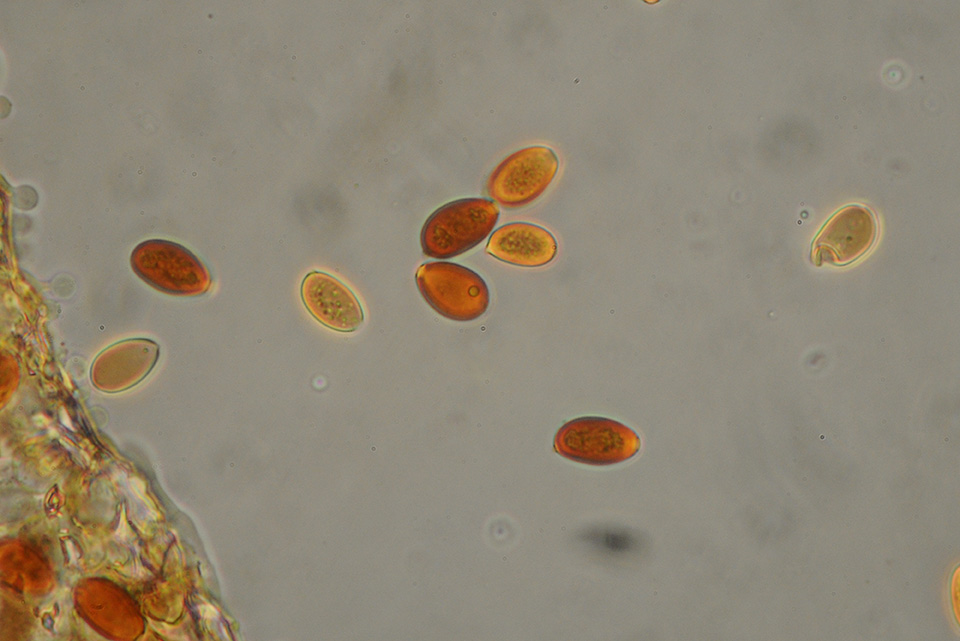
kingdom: Fungi
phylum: Basidiomycota
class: Agaricomycetes
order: Agaricales
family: Bolbitiaceae
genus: Conocybe
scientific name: Conocybe rickenii
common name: møg-keglehat
